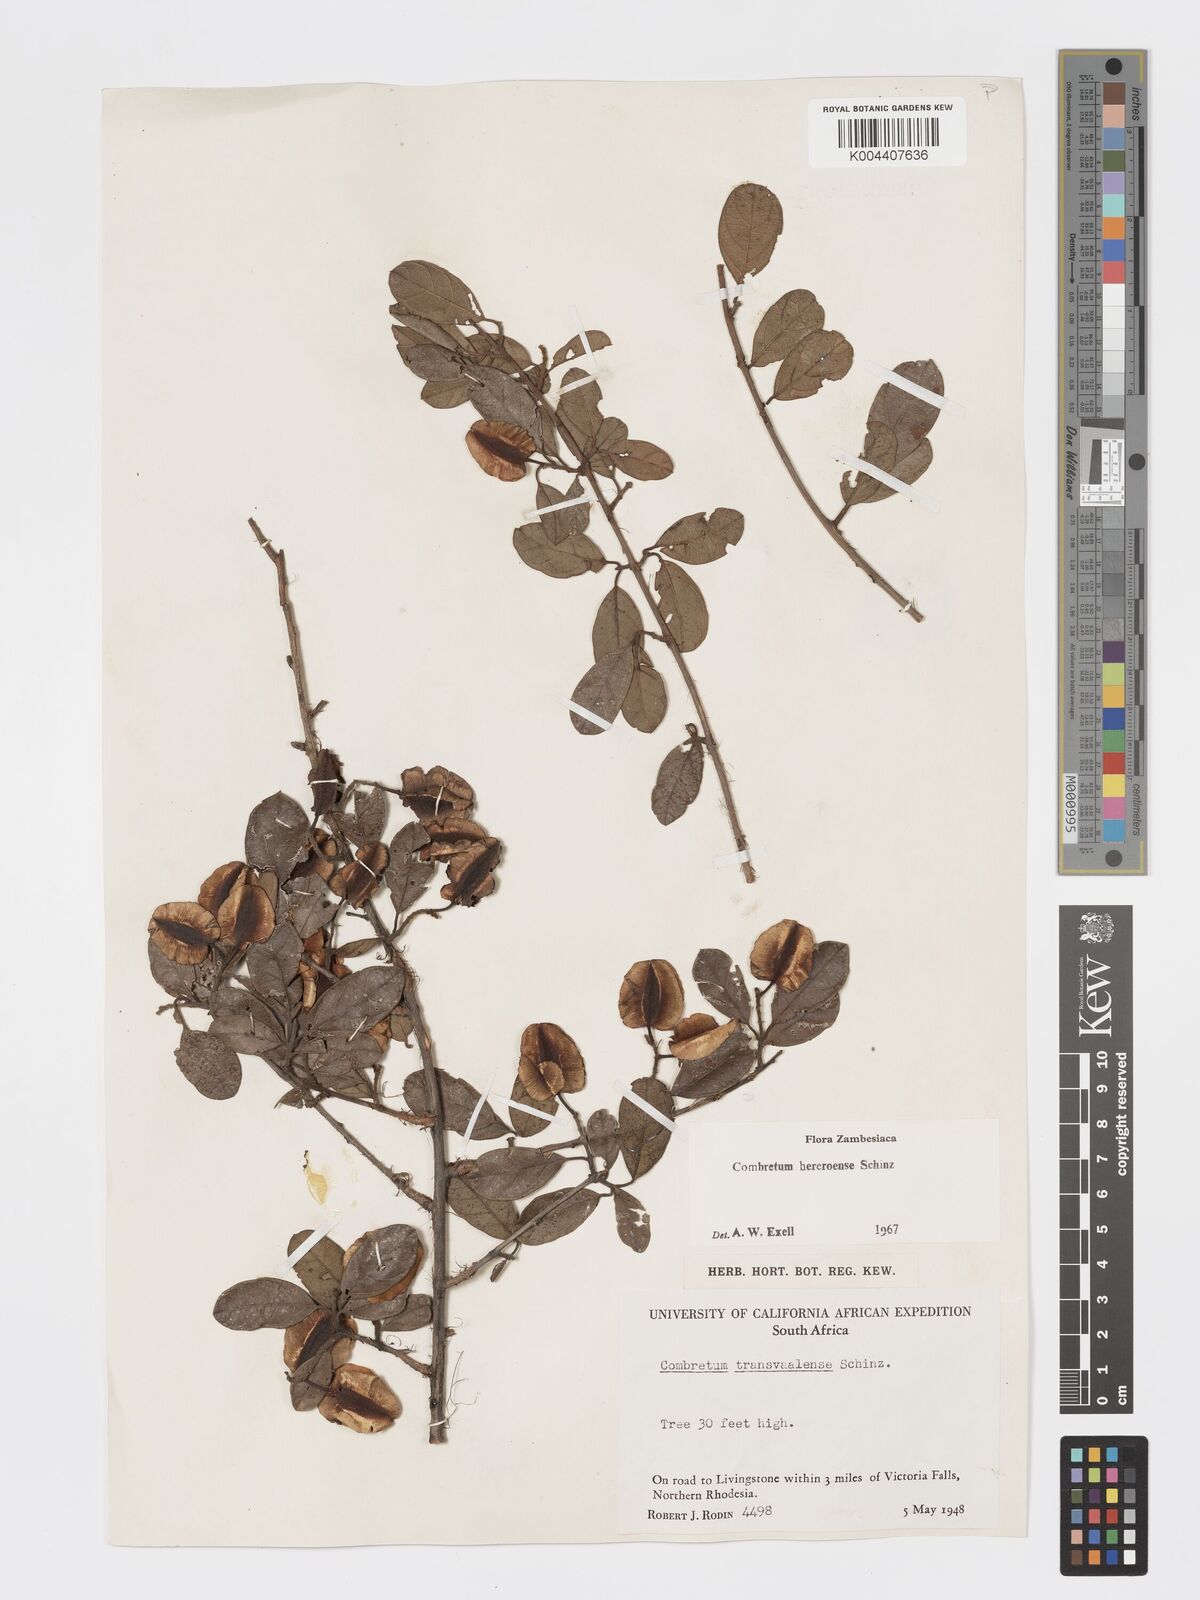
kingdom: Plantae
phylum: Tracheophyta
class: Magnoliopsida
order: Myrtales
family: Combretaceae
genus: Combretum
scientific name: Combretum hereroense
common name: Russet bushwillow
